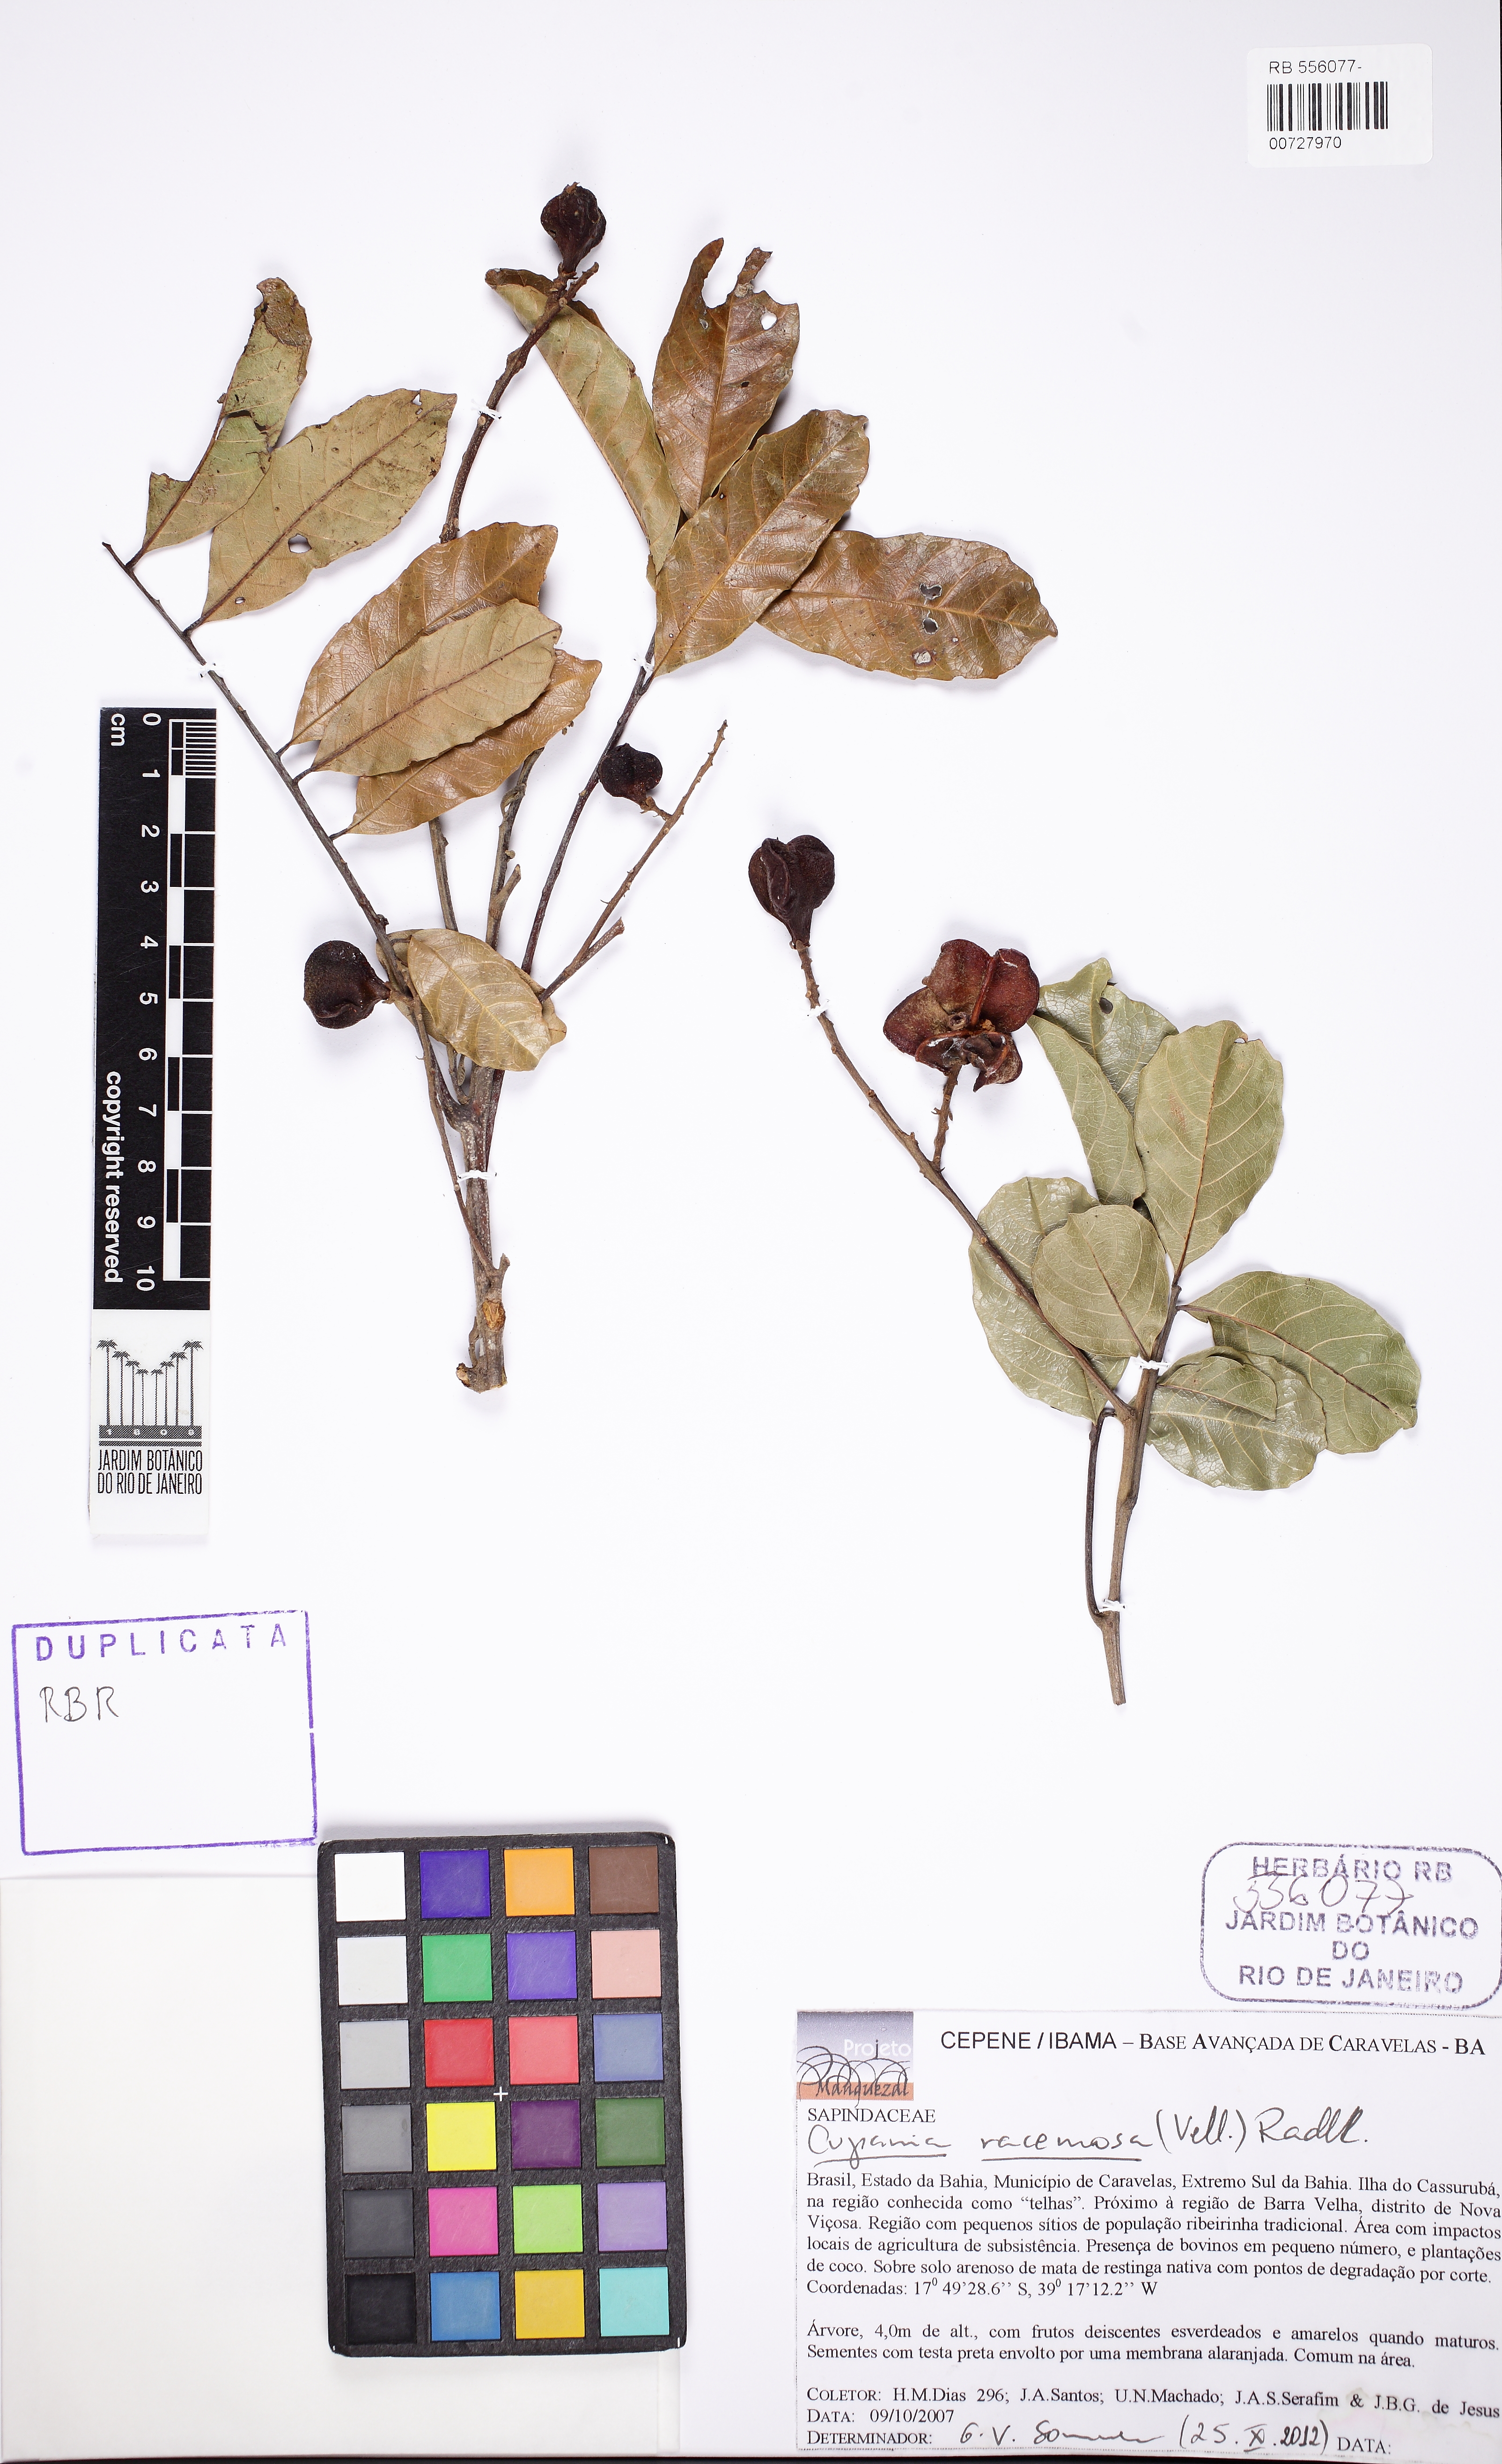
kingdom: Plantae
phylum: Tracheophyta
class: Magnoliopsida
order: Sapindales
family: Sapindaceae
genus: Cupania
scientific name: Cupania racemosa
